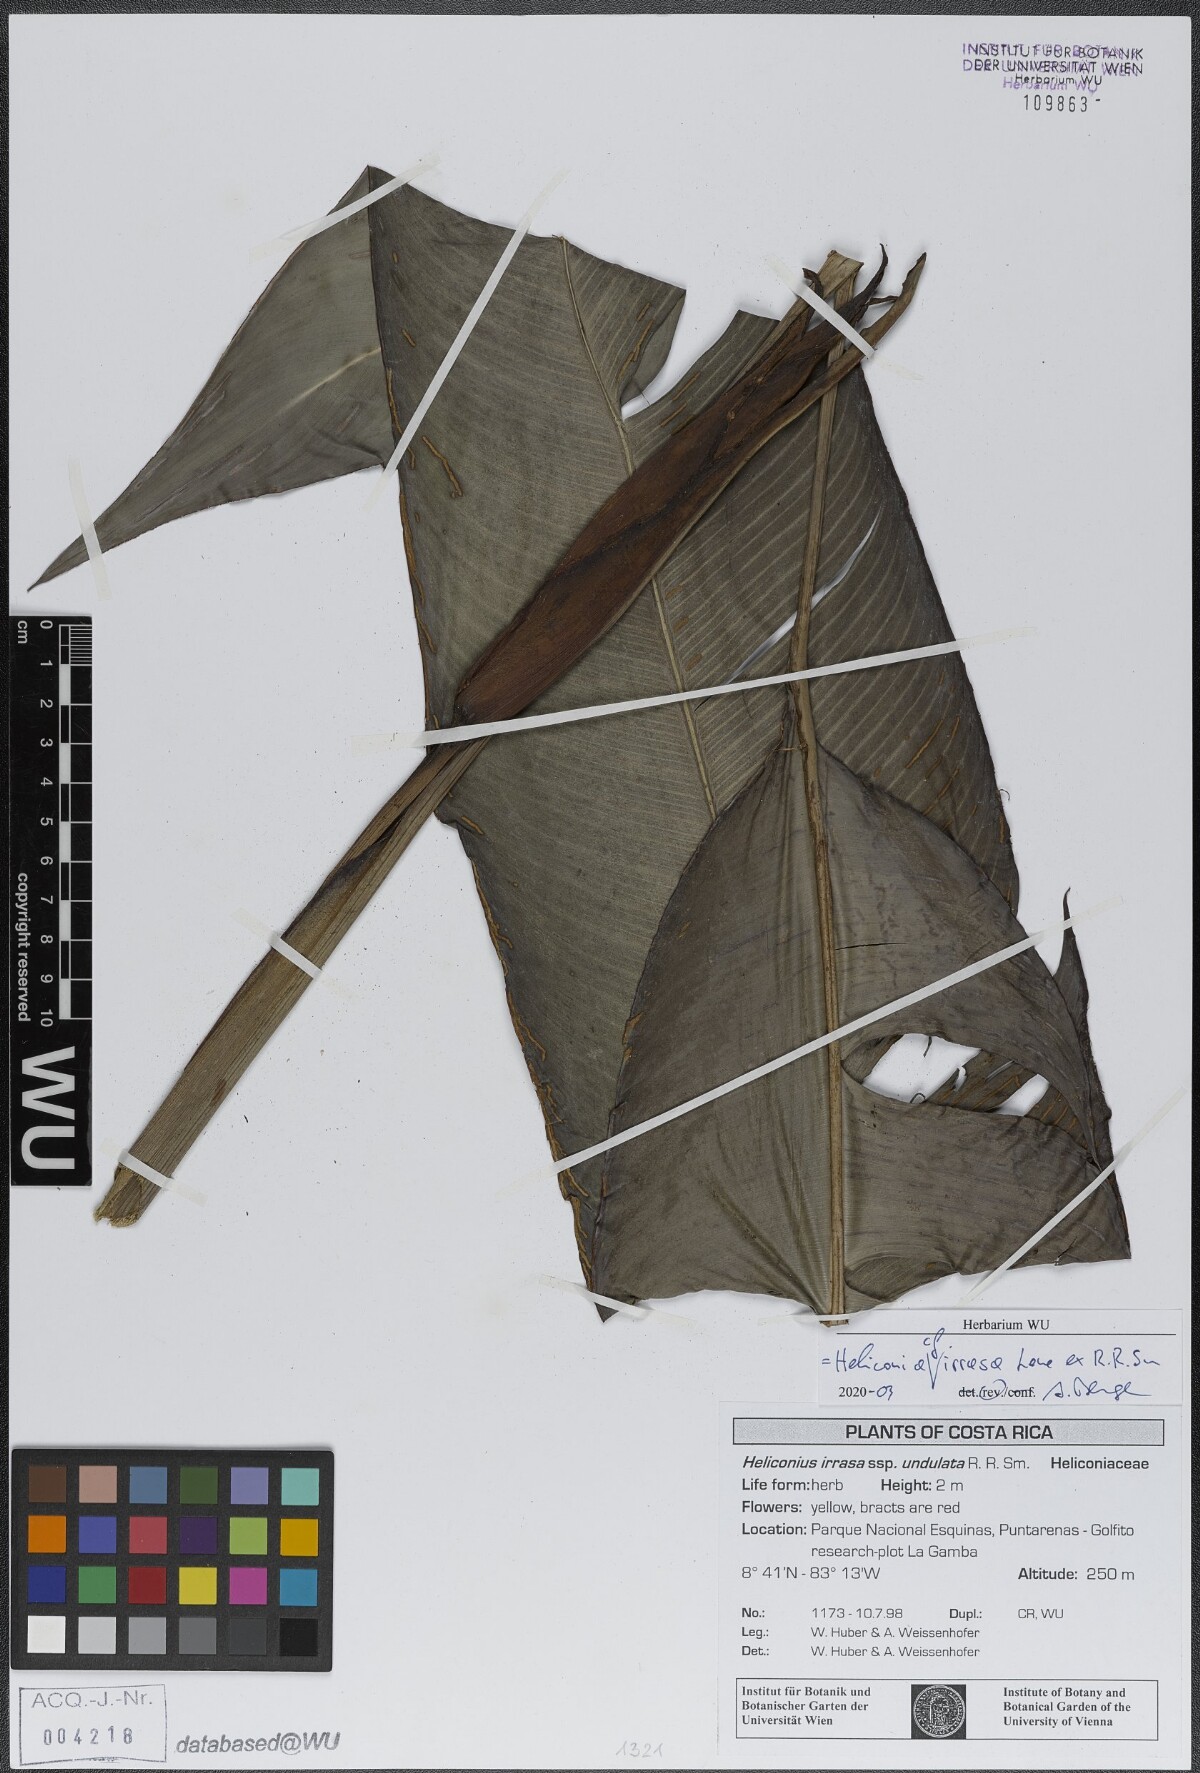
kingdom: Plantae
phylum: Tracheophyta
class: Liliopsida
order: Zingiberales
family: Heliconiaceae
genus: Heliconia
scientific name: Heliconia irrasa
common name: Wild plantain
